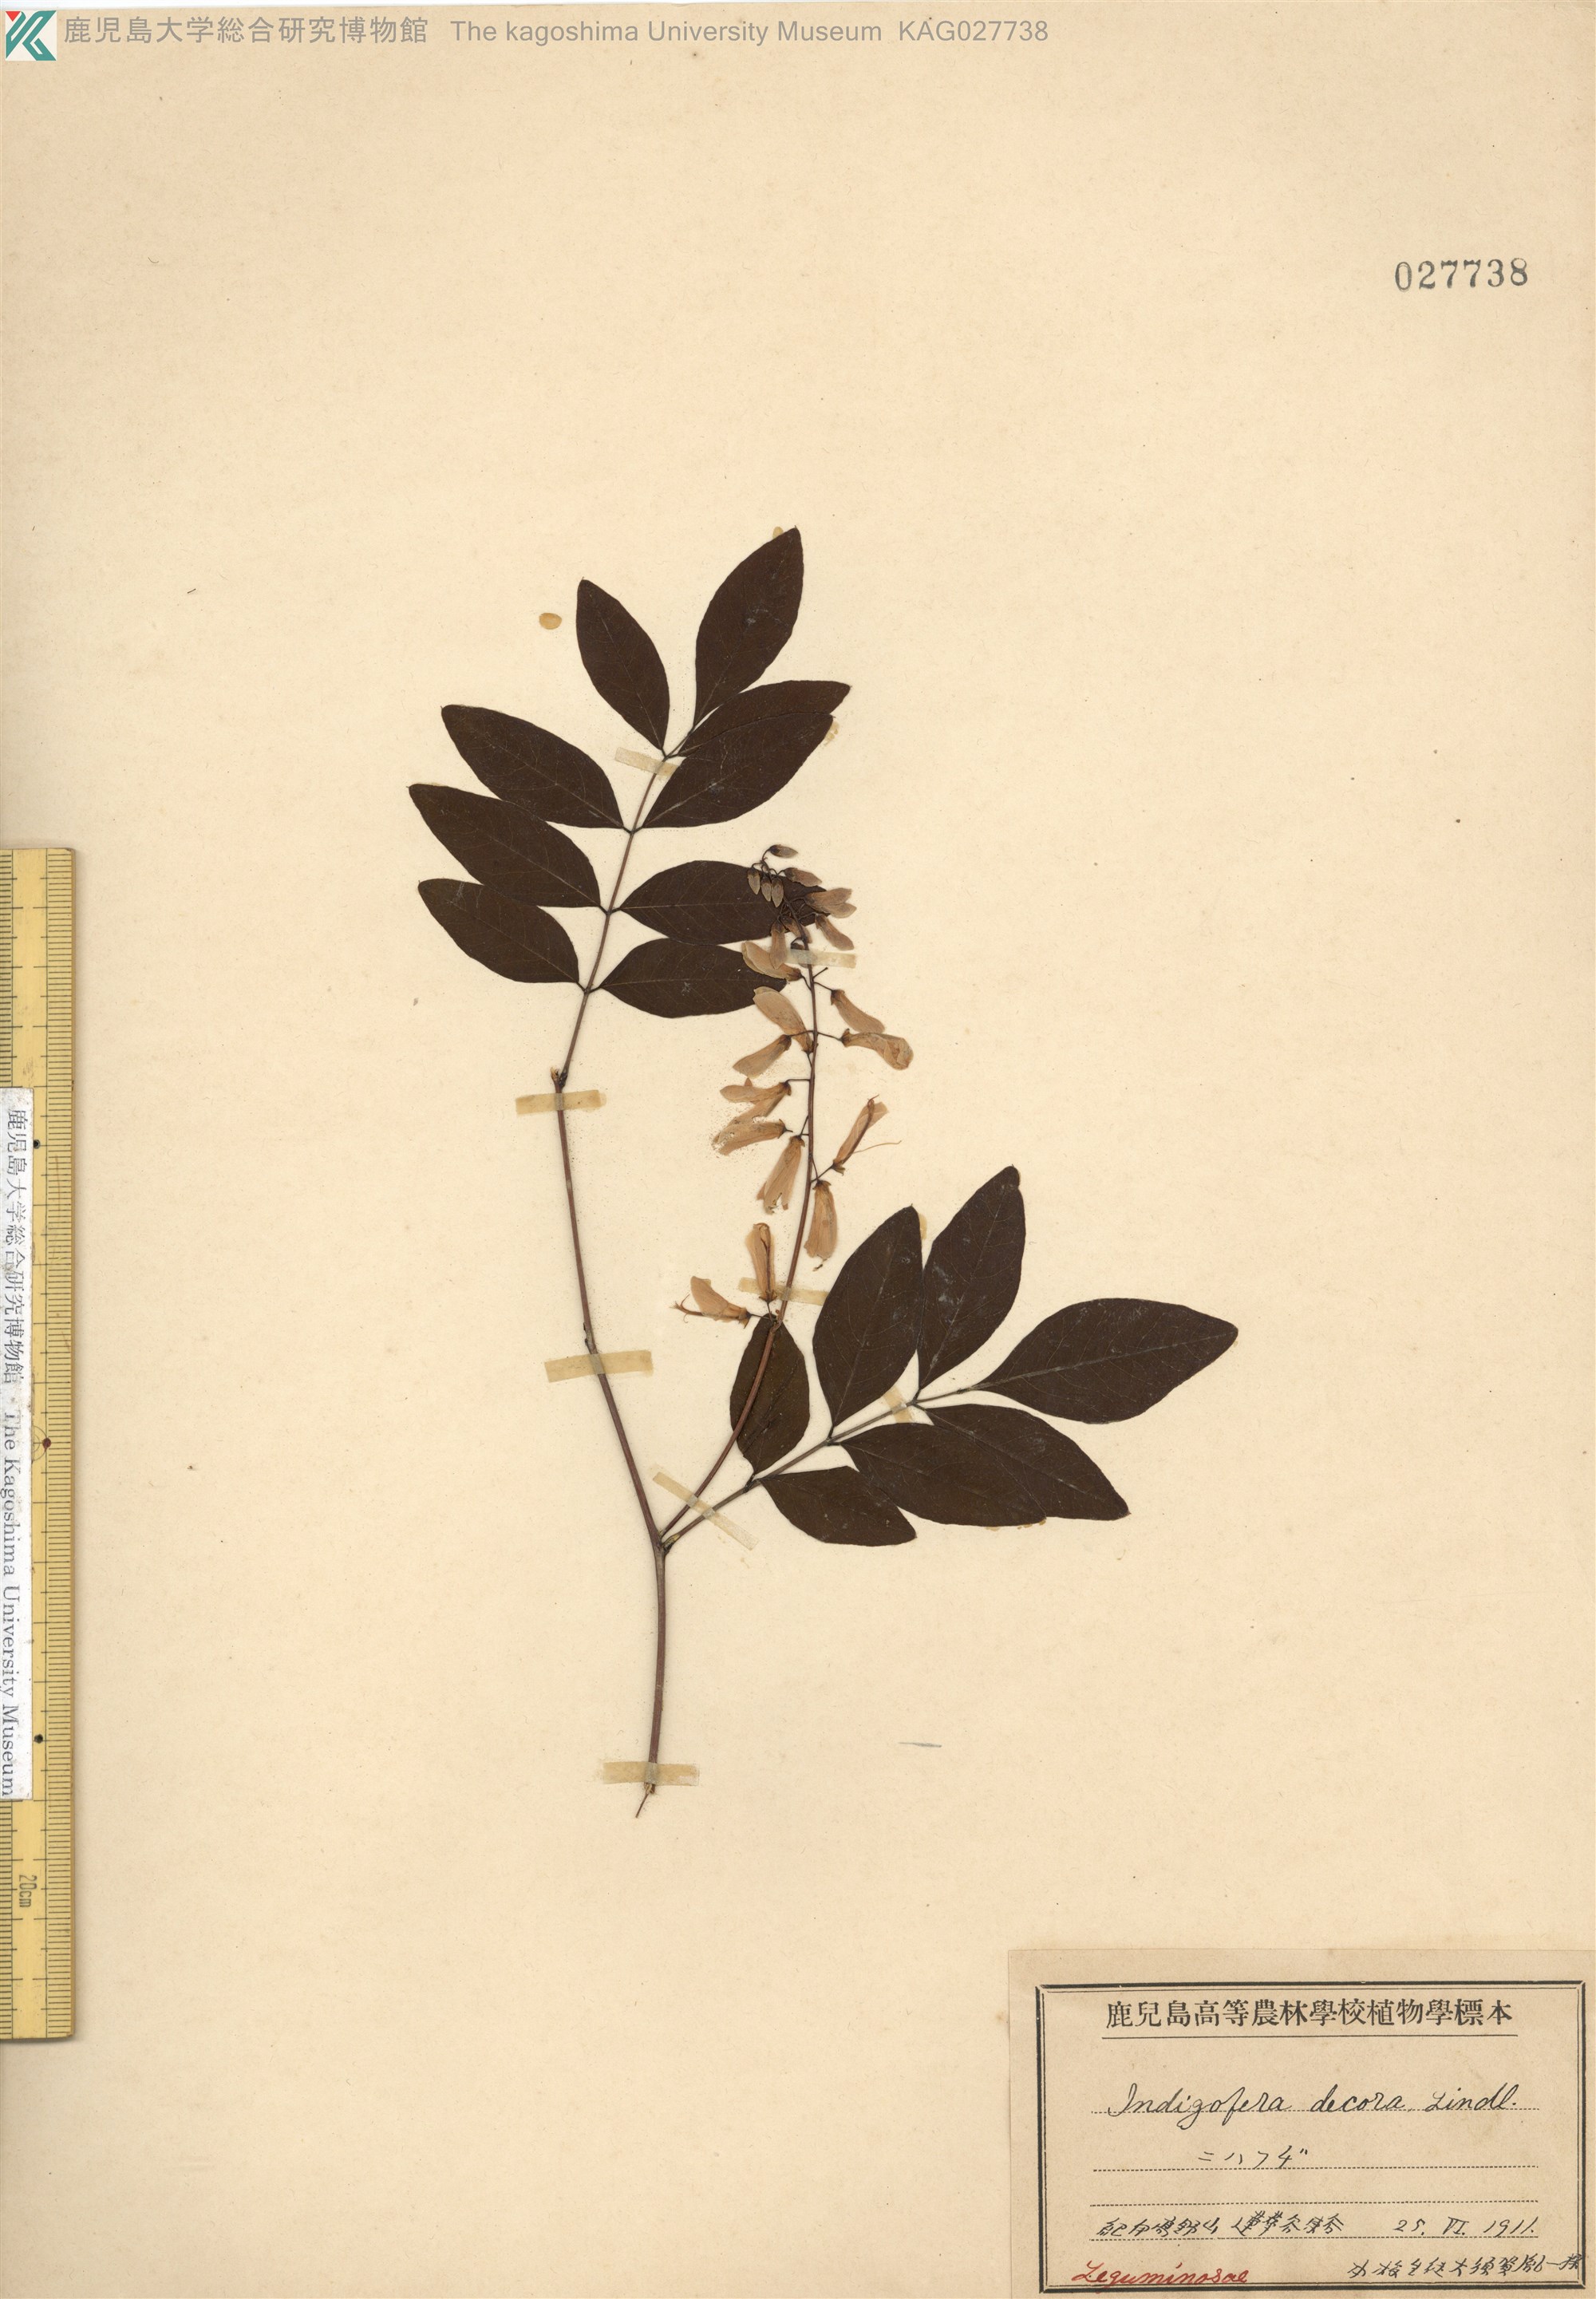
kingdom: Plantae
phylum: Tracheophyta
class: Magnoliopsida
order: Fabales
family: Fabaceae
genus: Indigofera
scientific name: Indigofera incarnata
